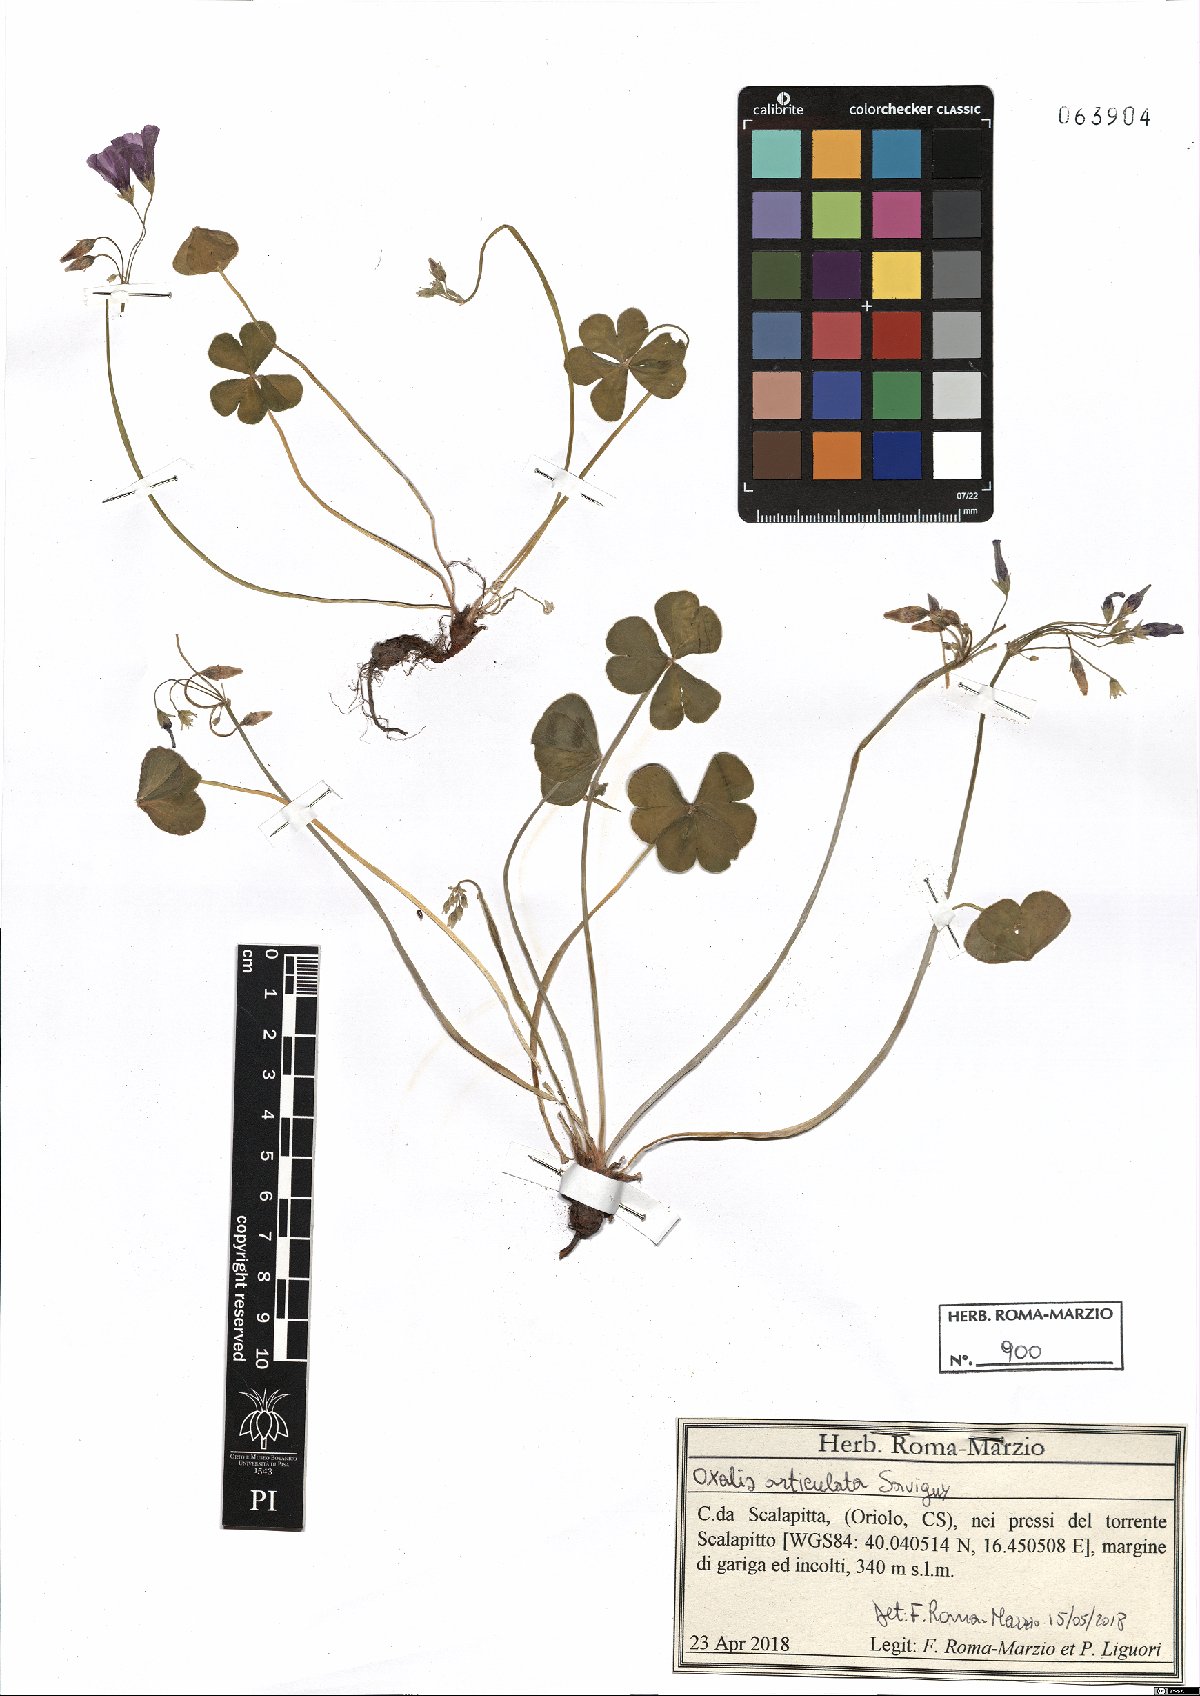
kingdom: Plantae
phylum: Tracheophyta
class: Magnoliopsida
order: Oxalidales
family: Oxalidaceae
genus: Oxalis
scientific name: Oxalis articulata
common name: Pink-sorrel
